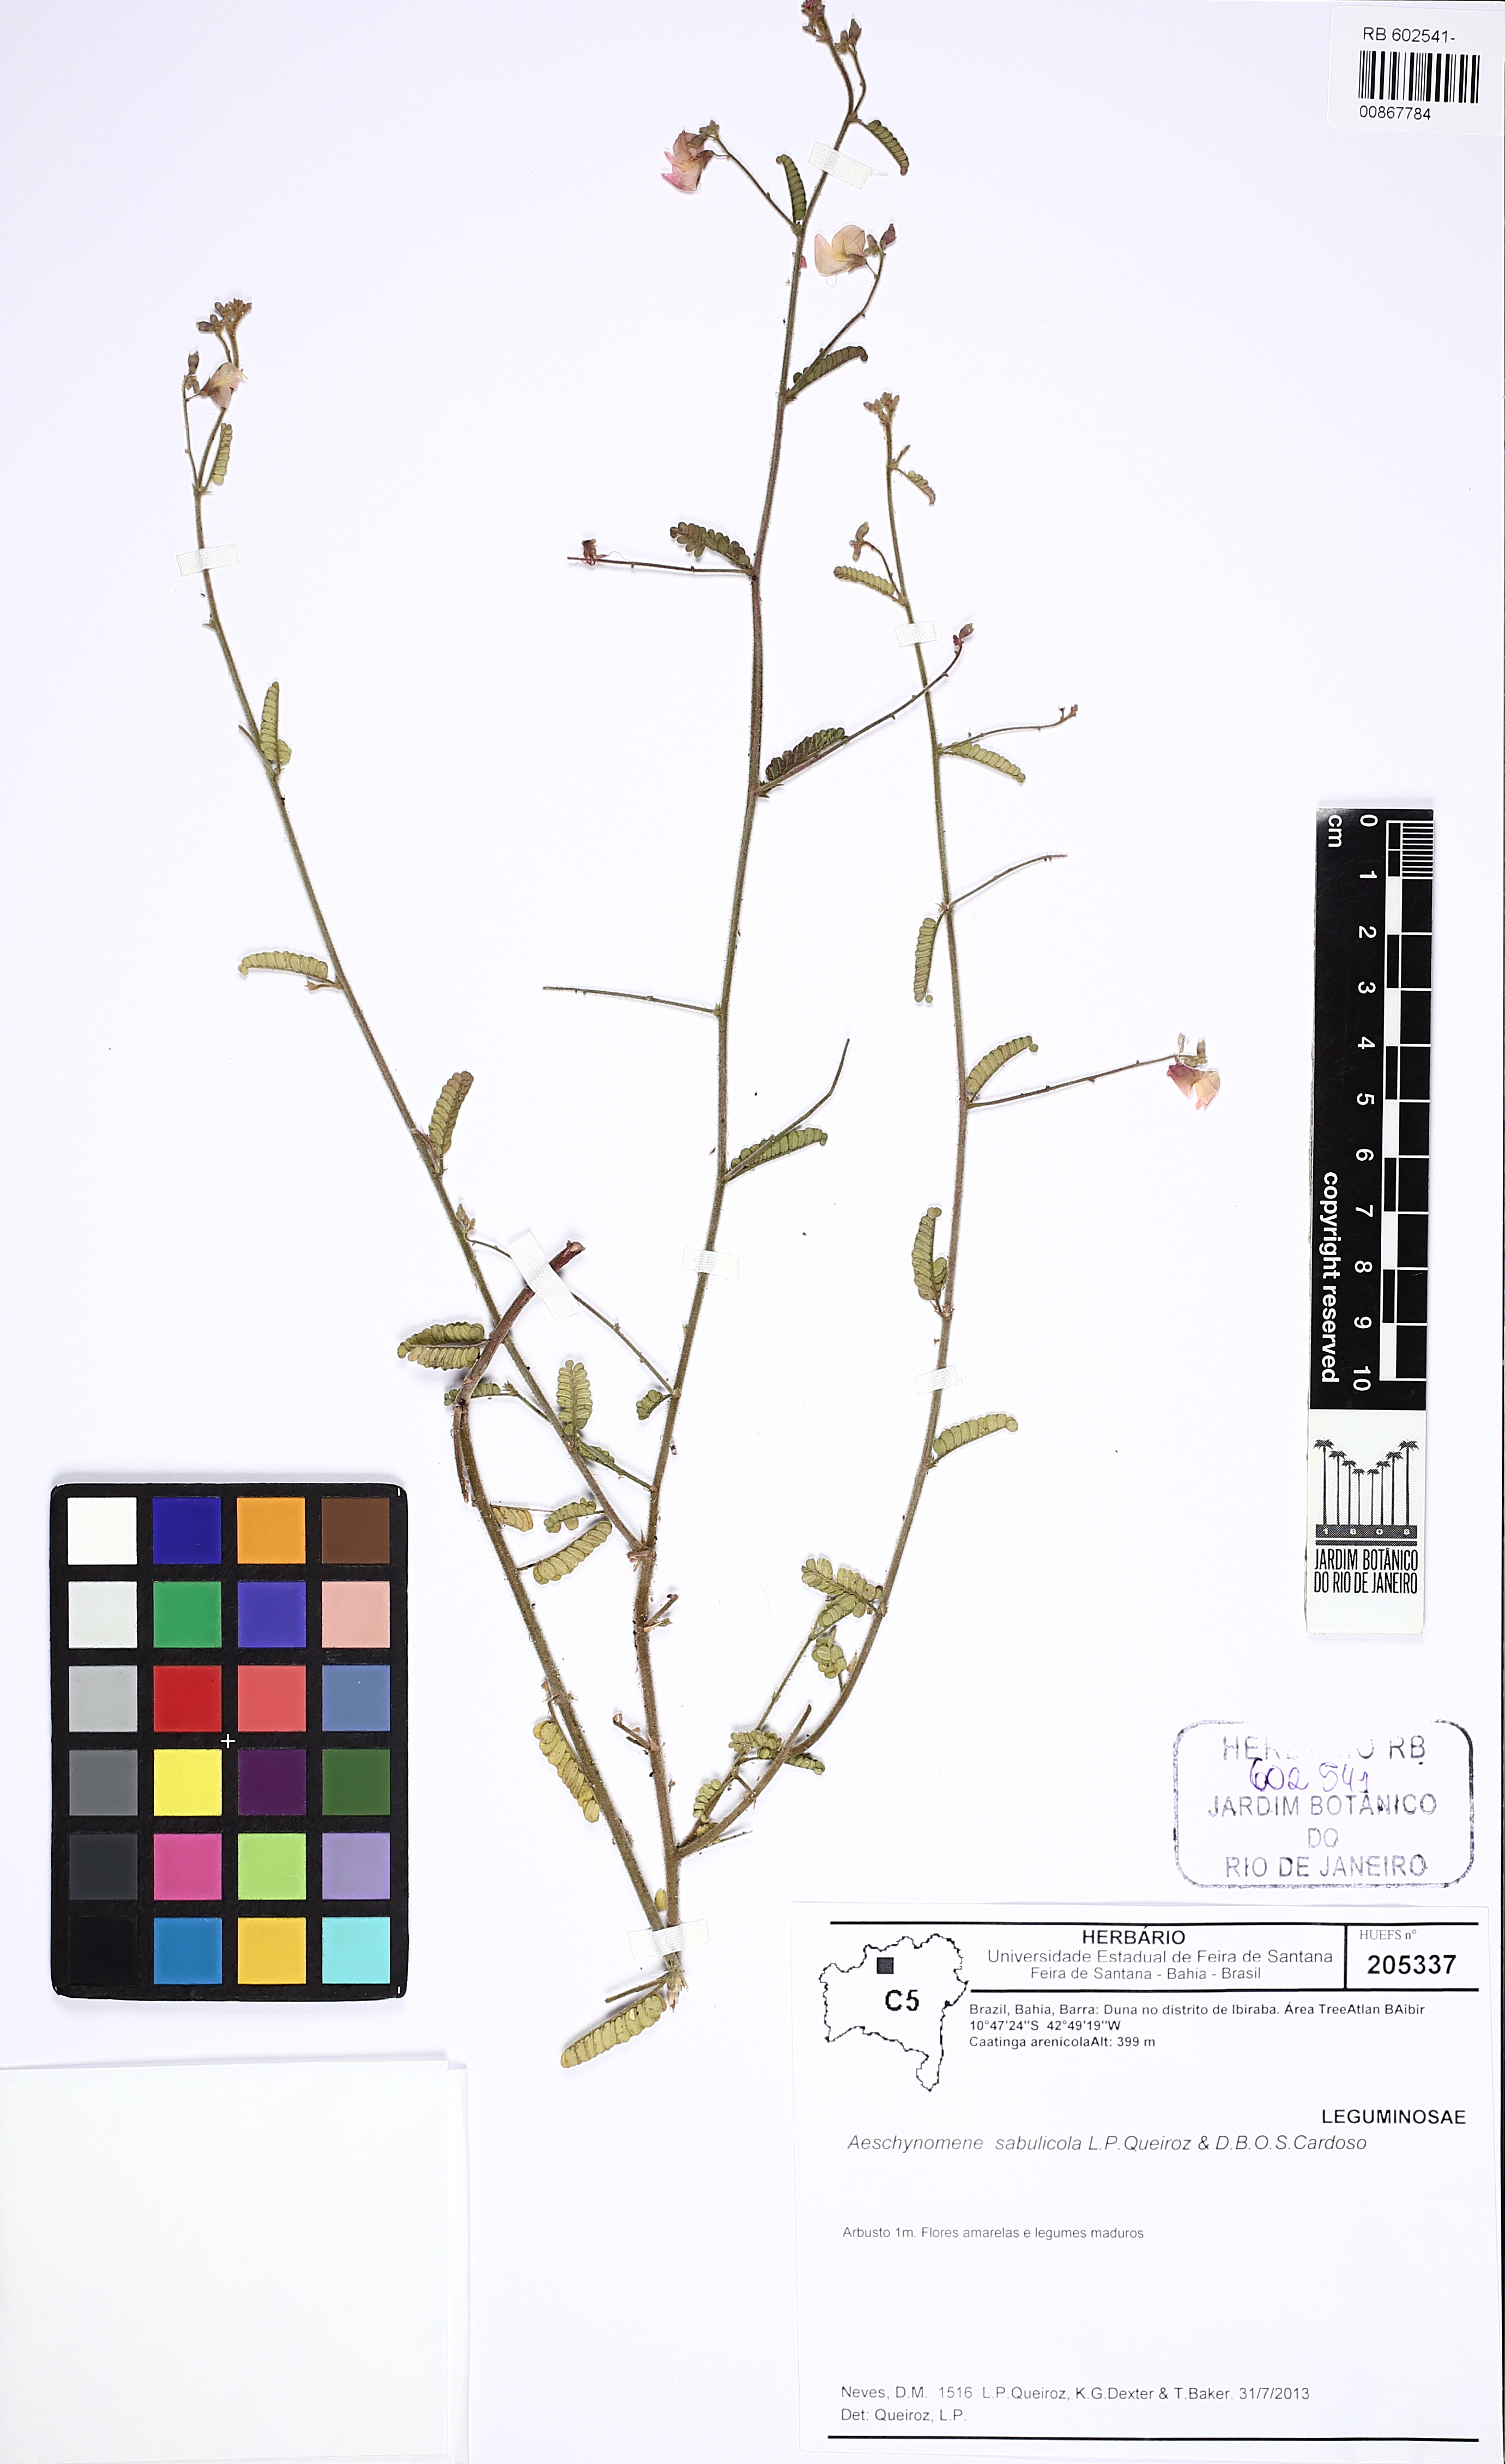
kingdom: Plantae
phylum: Tracheophyta
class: Magnoliopsida
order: Fabales
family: Fabaceae
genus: Ctenodon
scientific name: Ctenodon sabulicola
